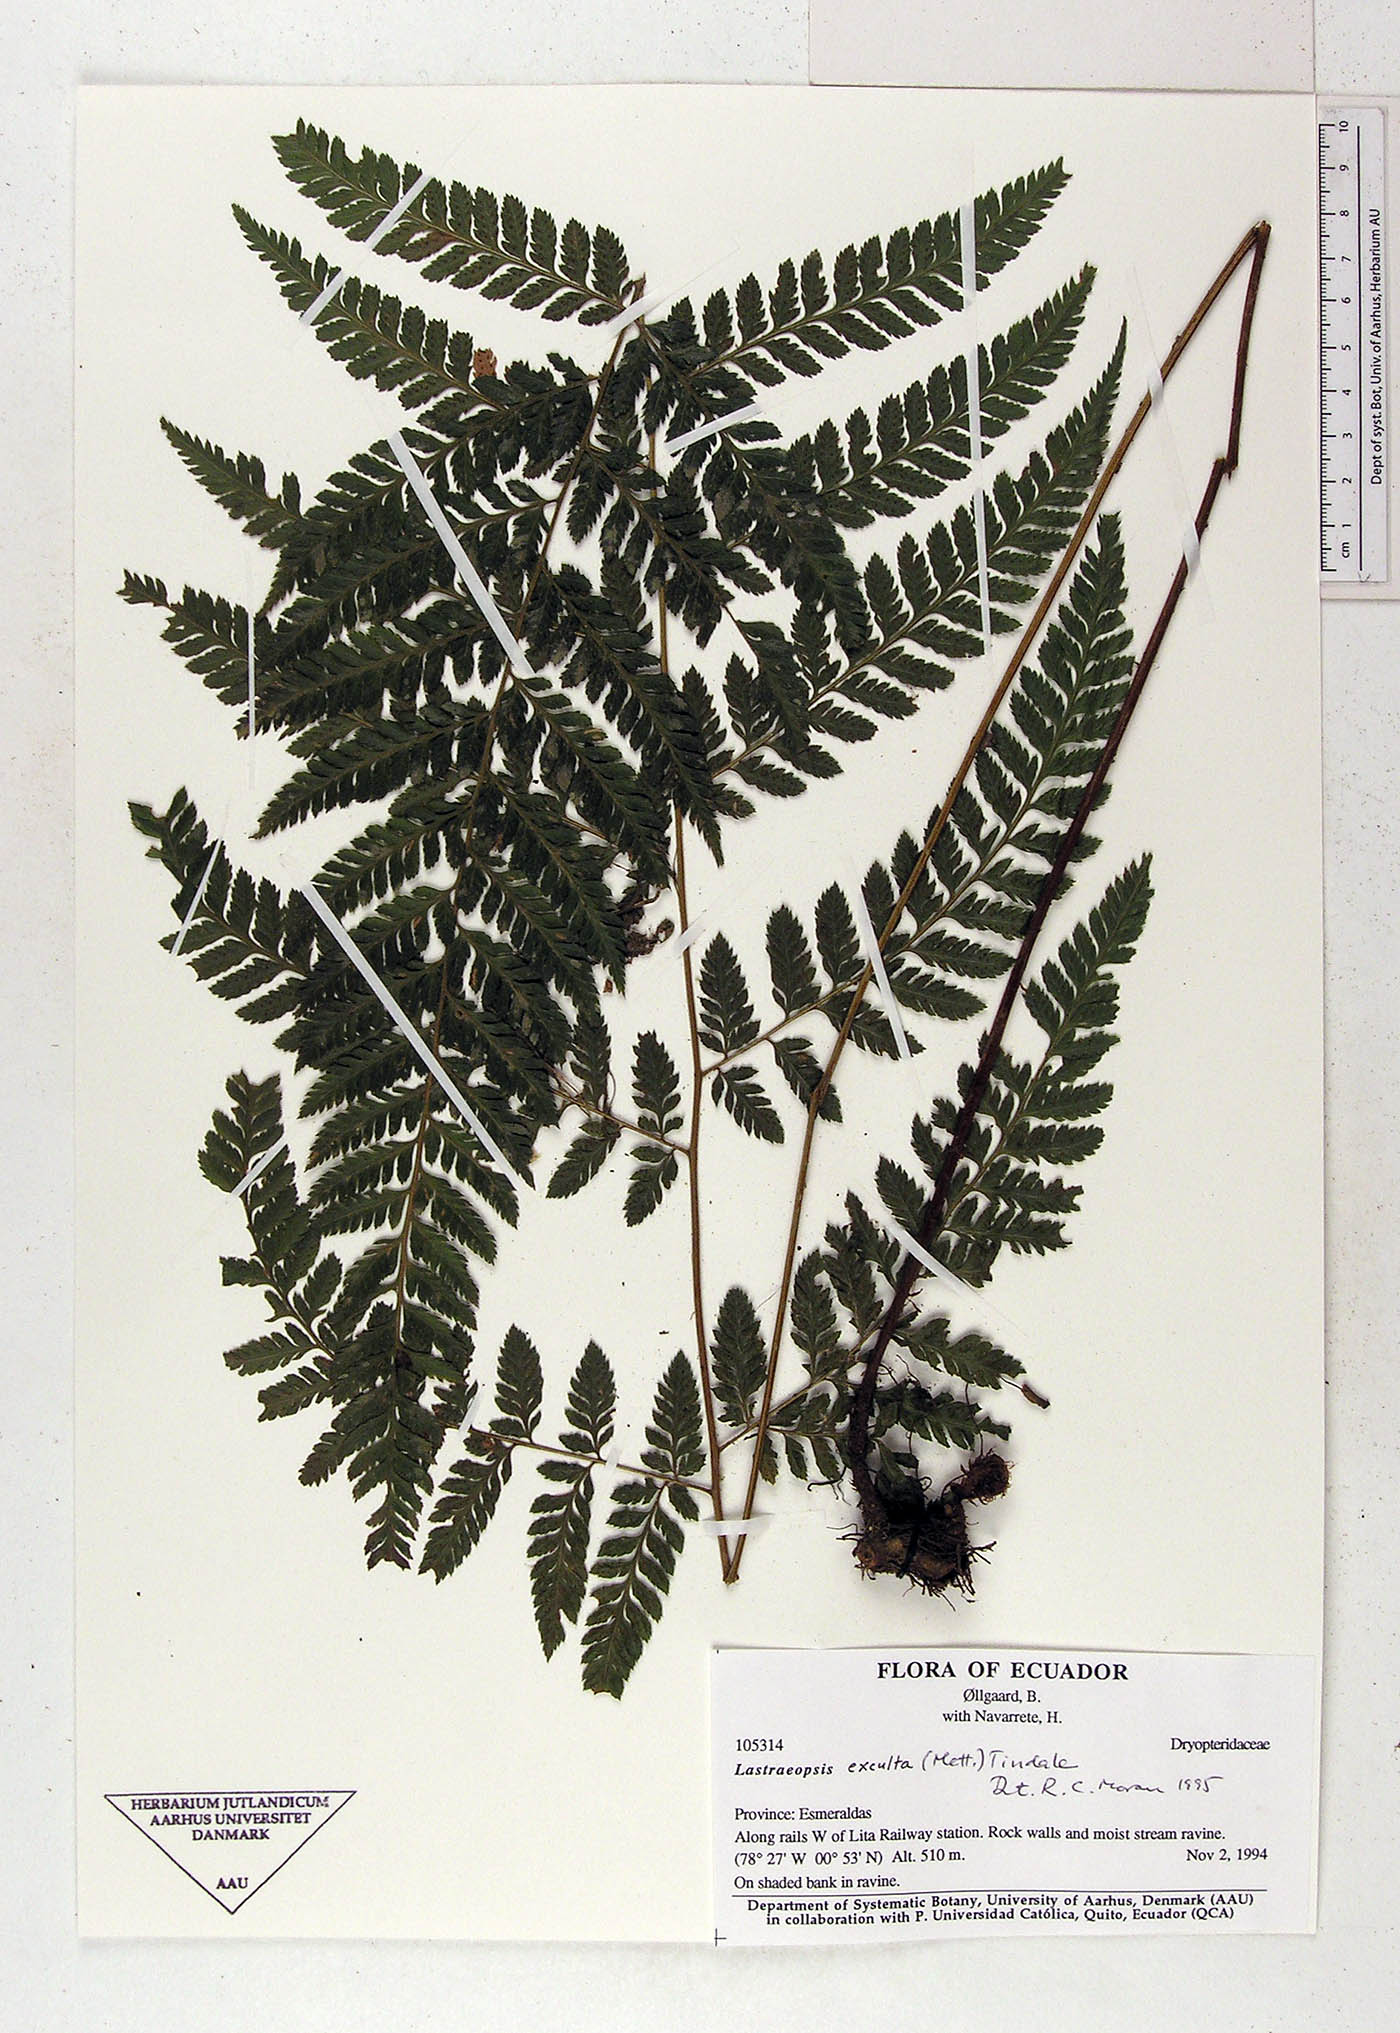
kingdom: Plantae
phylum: Tracheophyta
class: Polypodiopsida
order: Polypodiales
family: Dryopteridaceae
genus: Lastreopsis
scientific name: Lastreopsis
